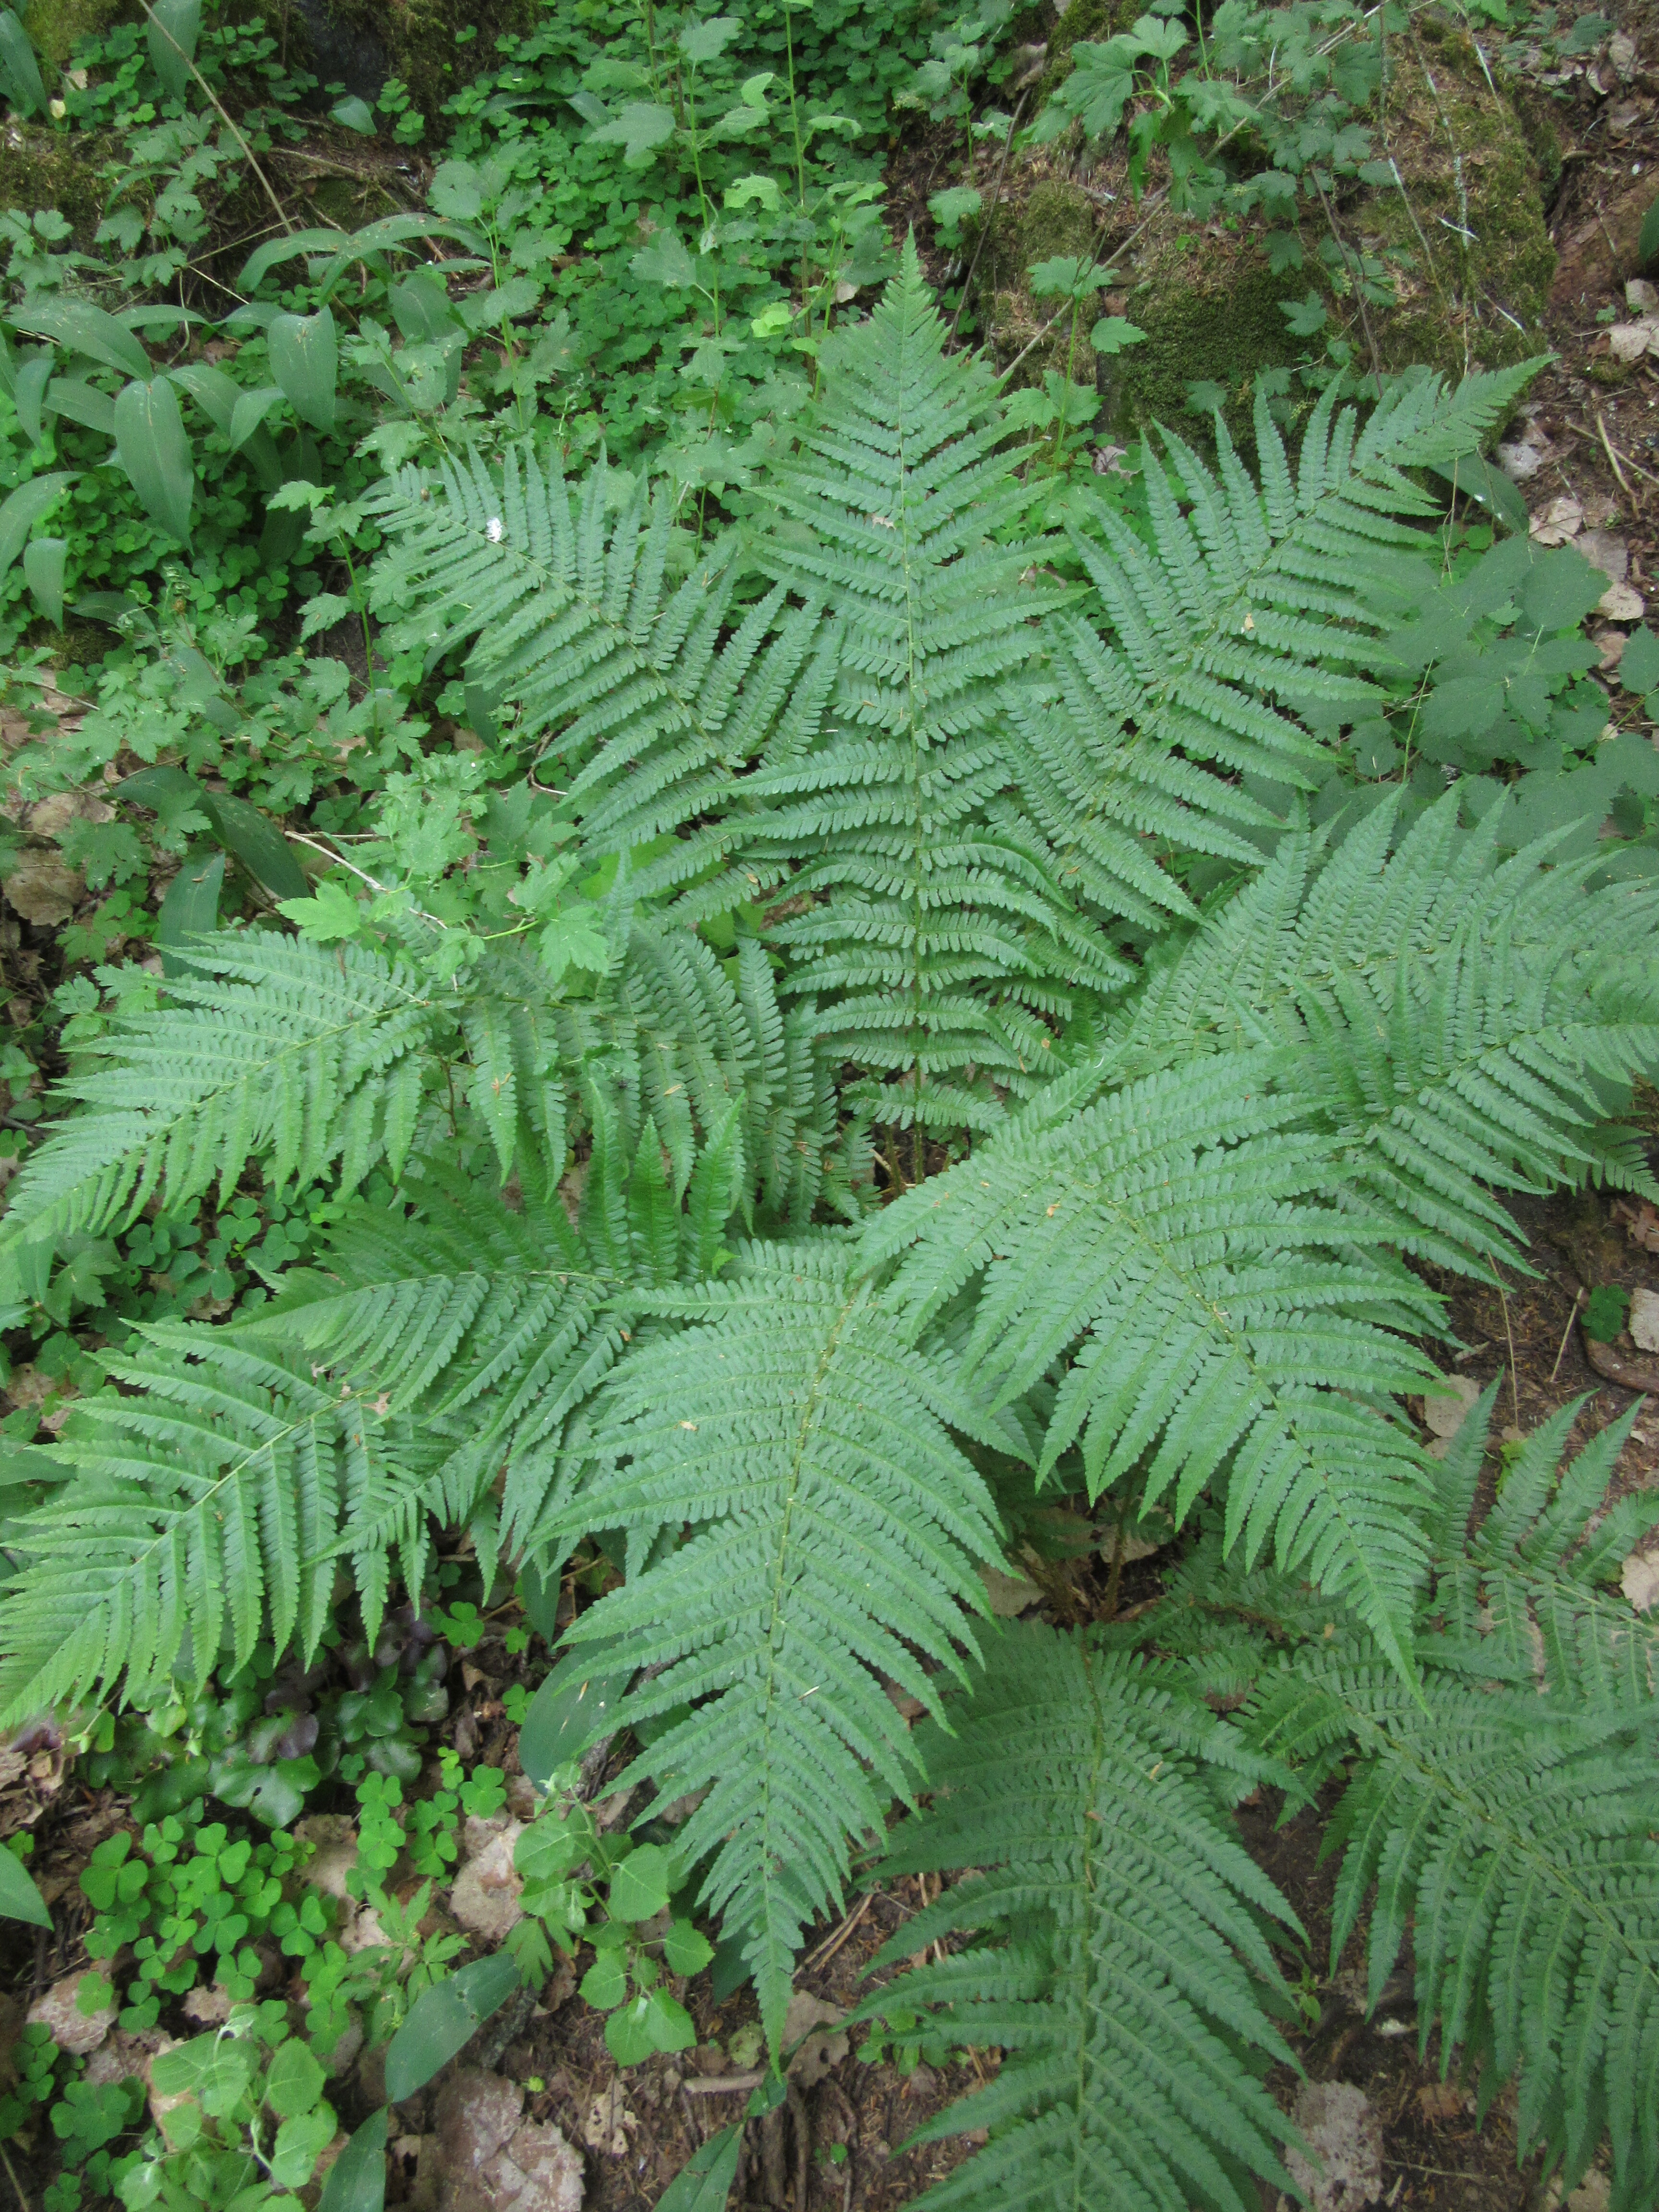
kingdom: Plantae
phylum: Tracheophyta
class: Polypodiopsida
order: Polypodiales
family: Dryopteridaceae
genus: Dryopteris
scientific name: Dryopteris filix-mas
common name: Male fern
